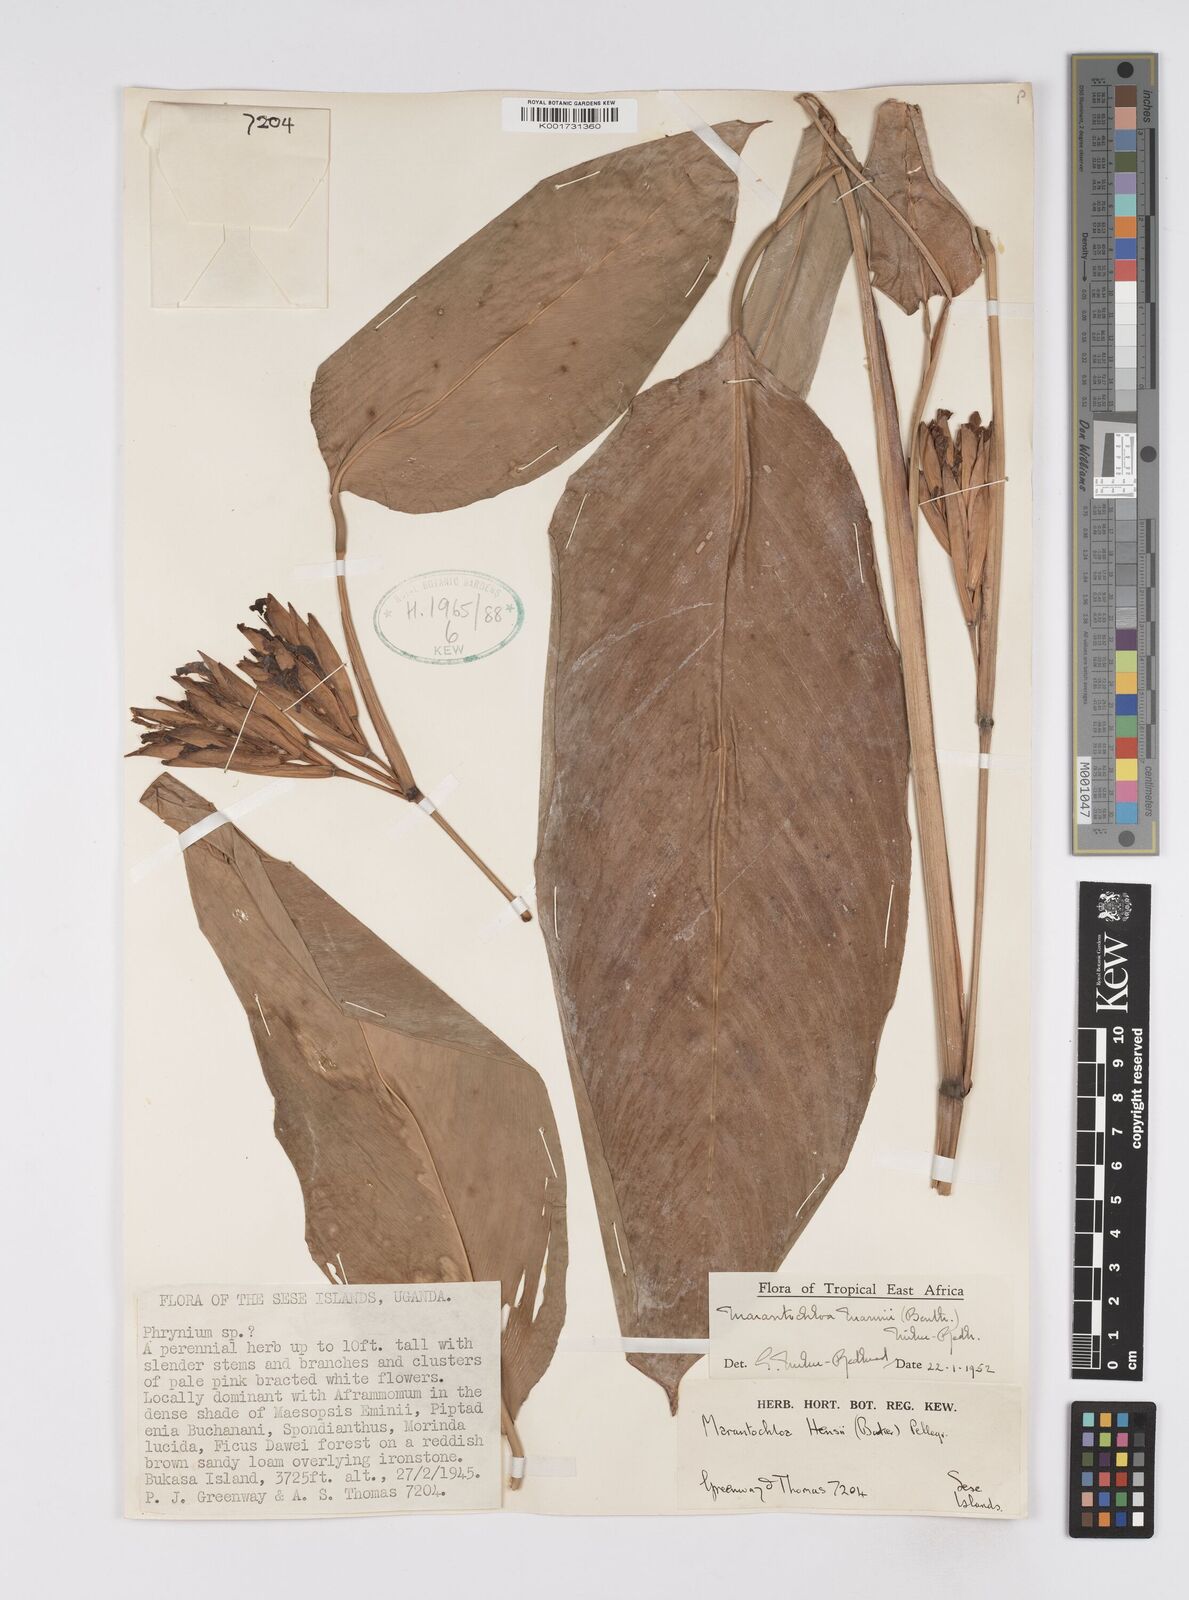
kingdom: Plantae
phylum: Tracheophyta
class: Liliopsida
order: Zingiberales
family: Marantaceae
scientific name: Marantaceae
